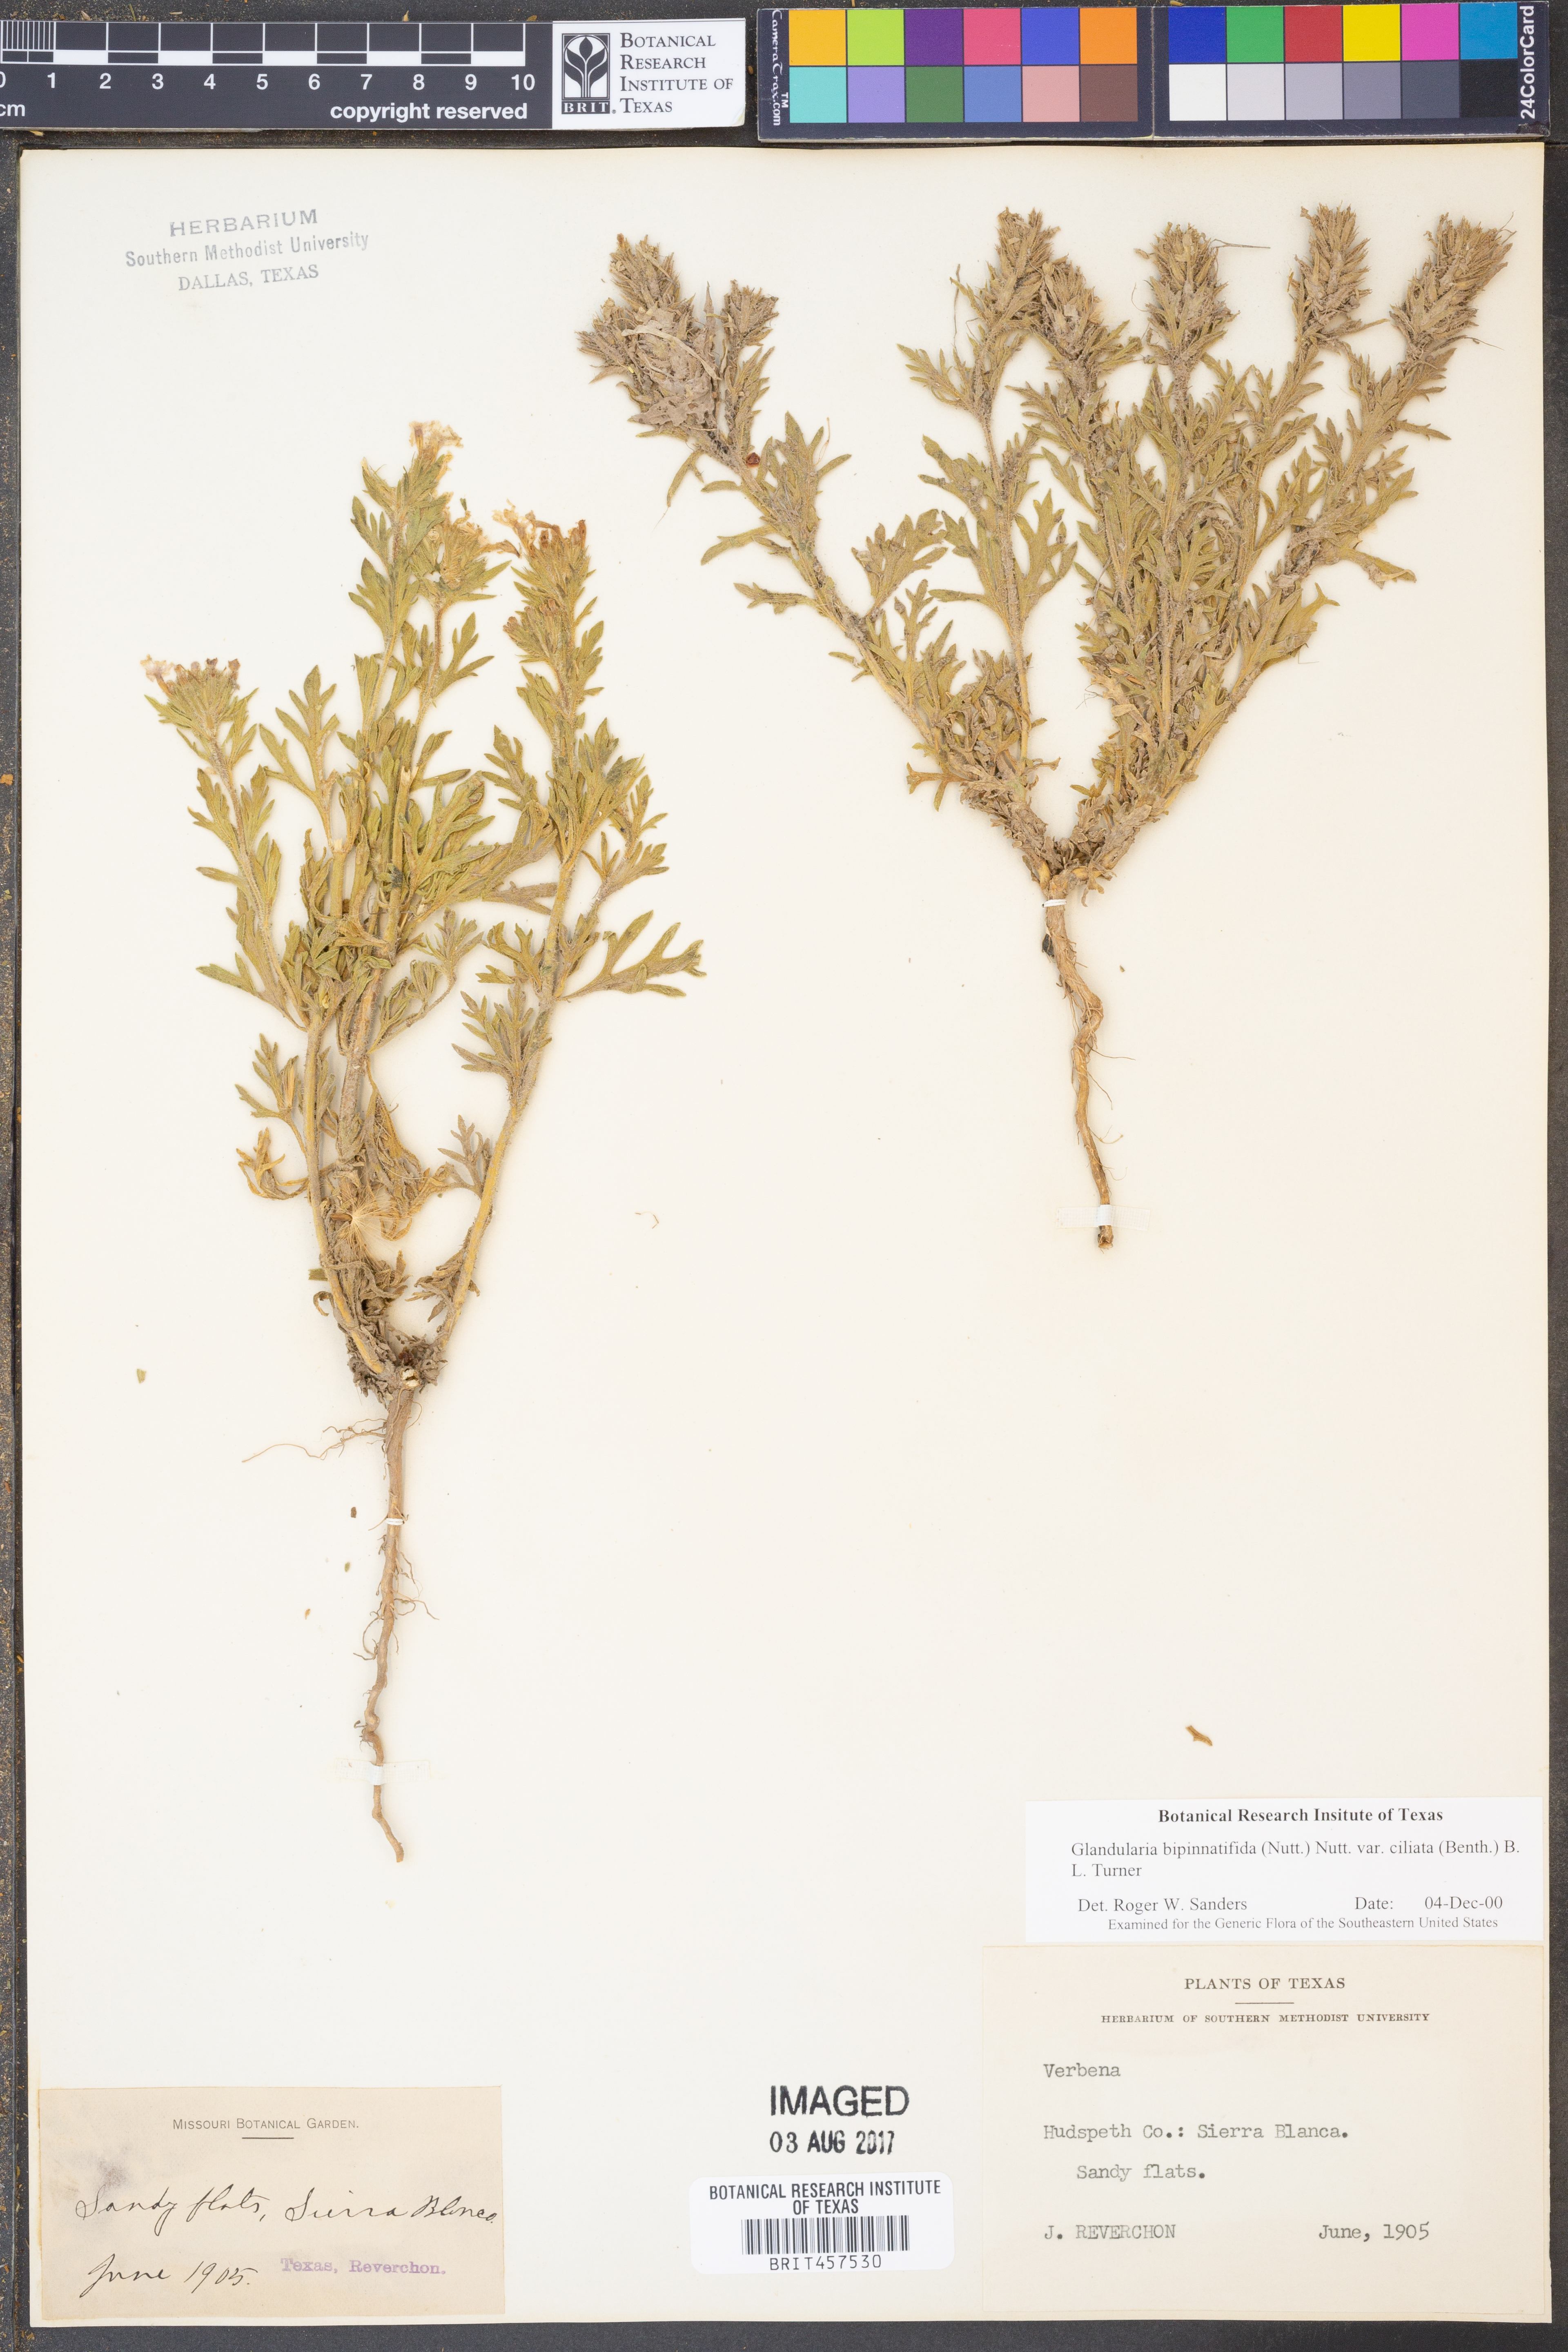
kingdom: Plantae
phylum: Tracheophyta
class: Magnoliopsida
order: Lamiales
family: Verbenaceae
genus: Verbena
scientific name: Verbena bipinnatifida
